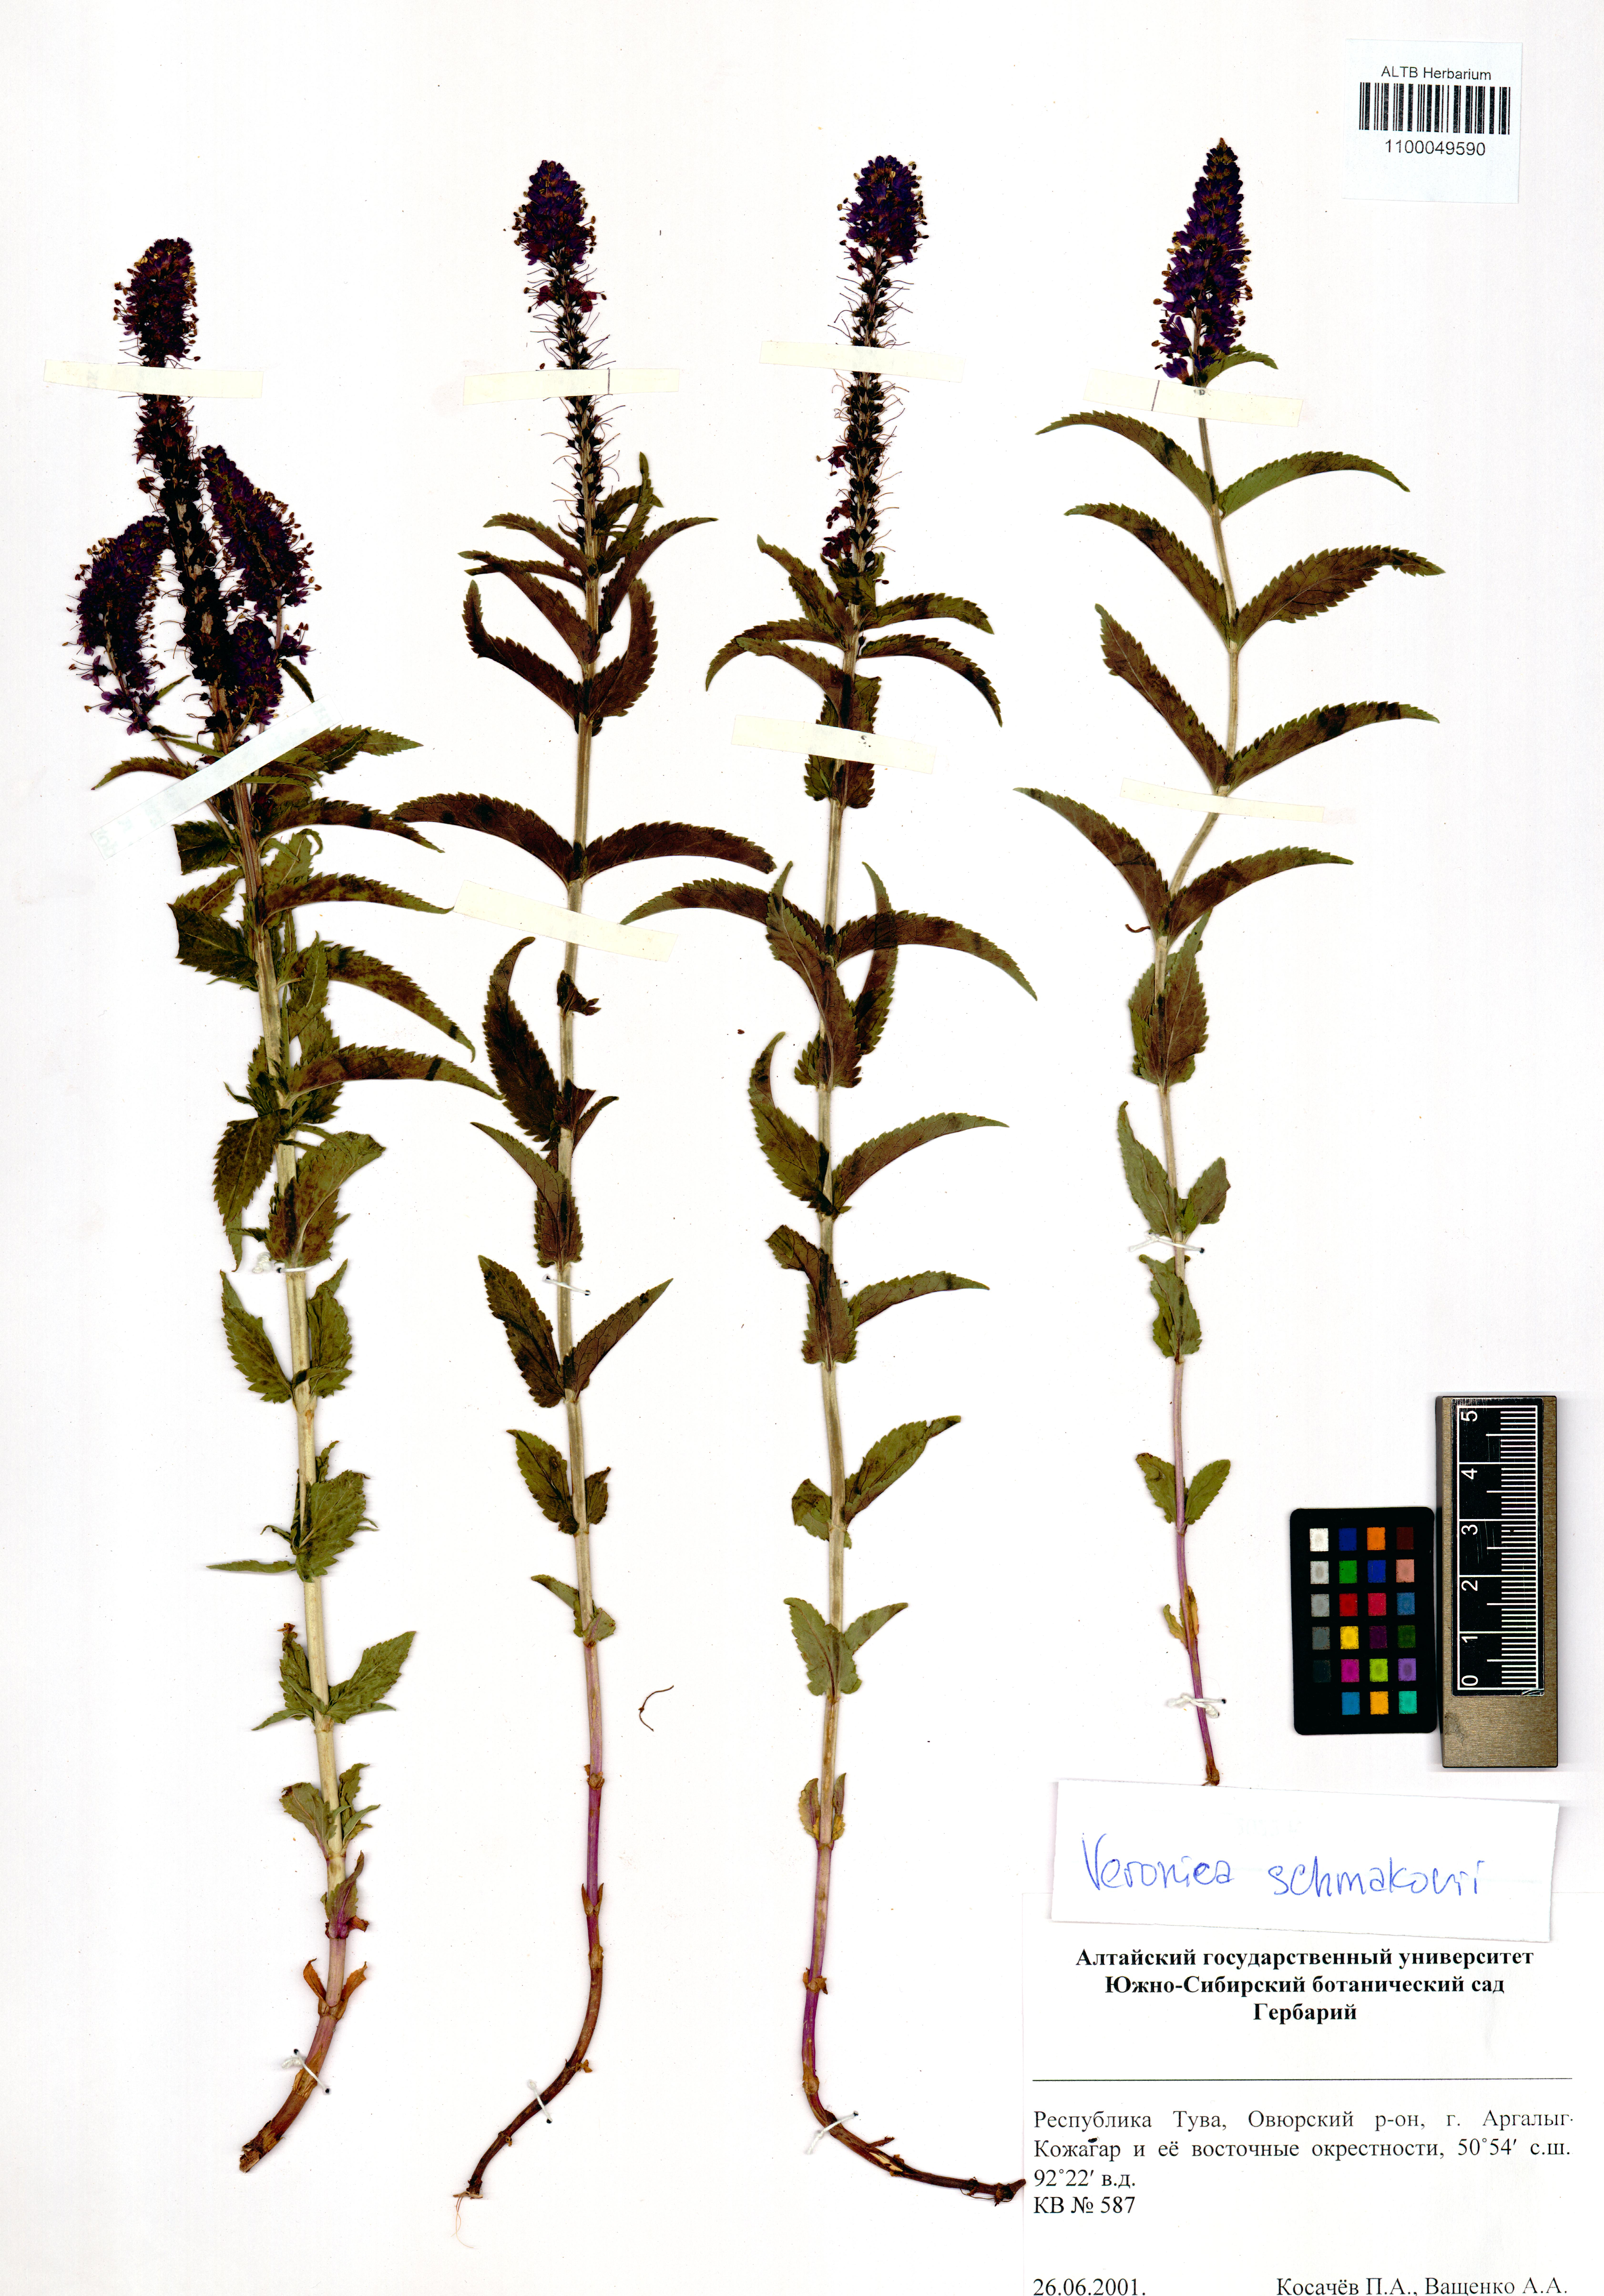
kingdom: Plantae
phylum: Tracheophyta
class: Magnoliopsida
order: Lamiales
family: Plantaginaceae
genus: Veronica
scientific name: Veronica schmakovii
